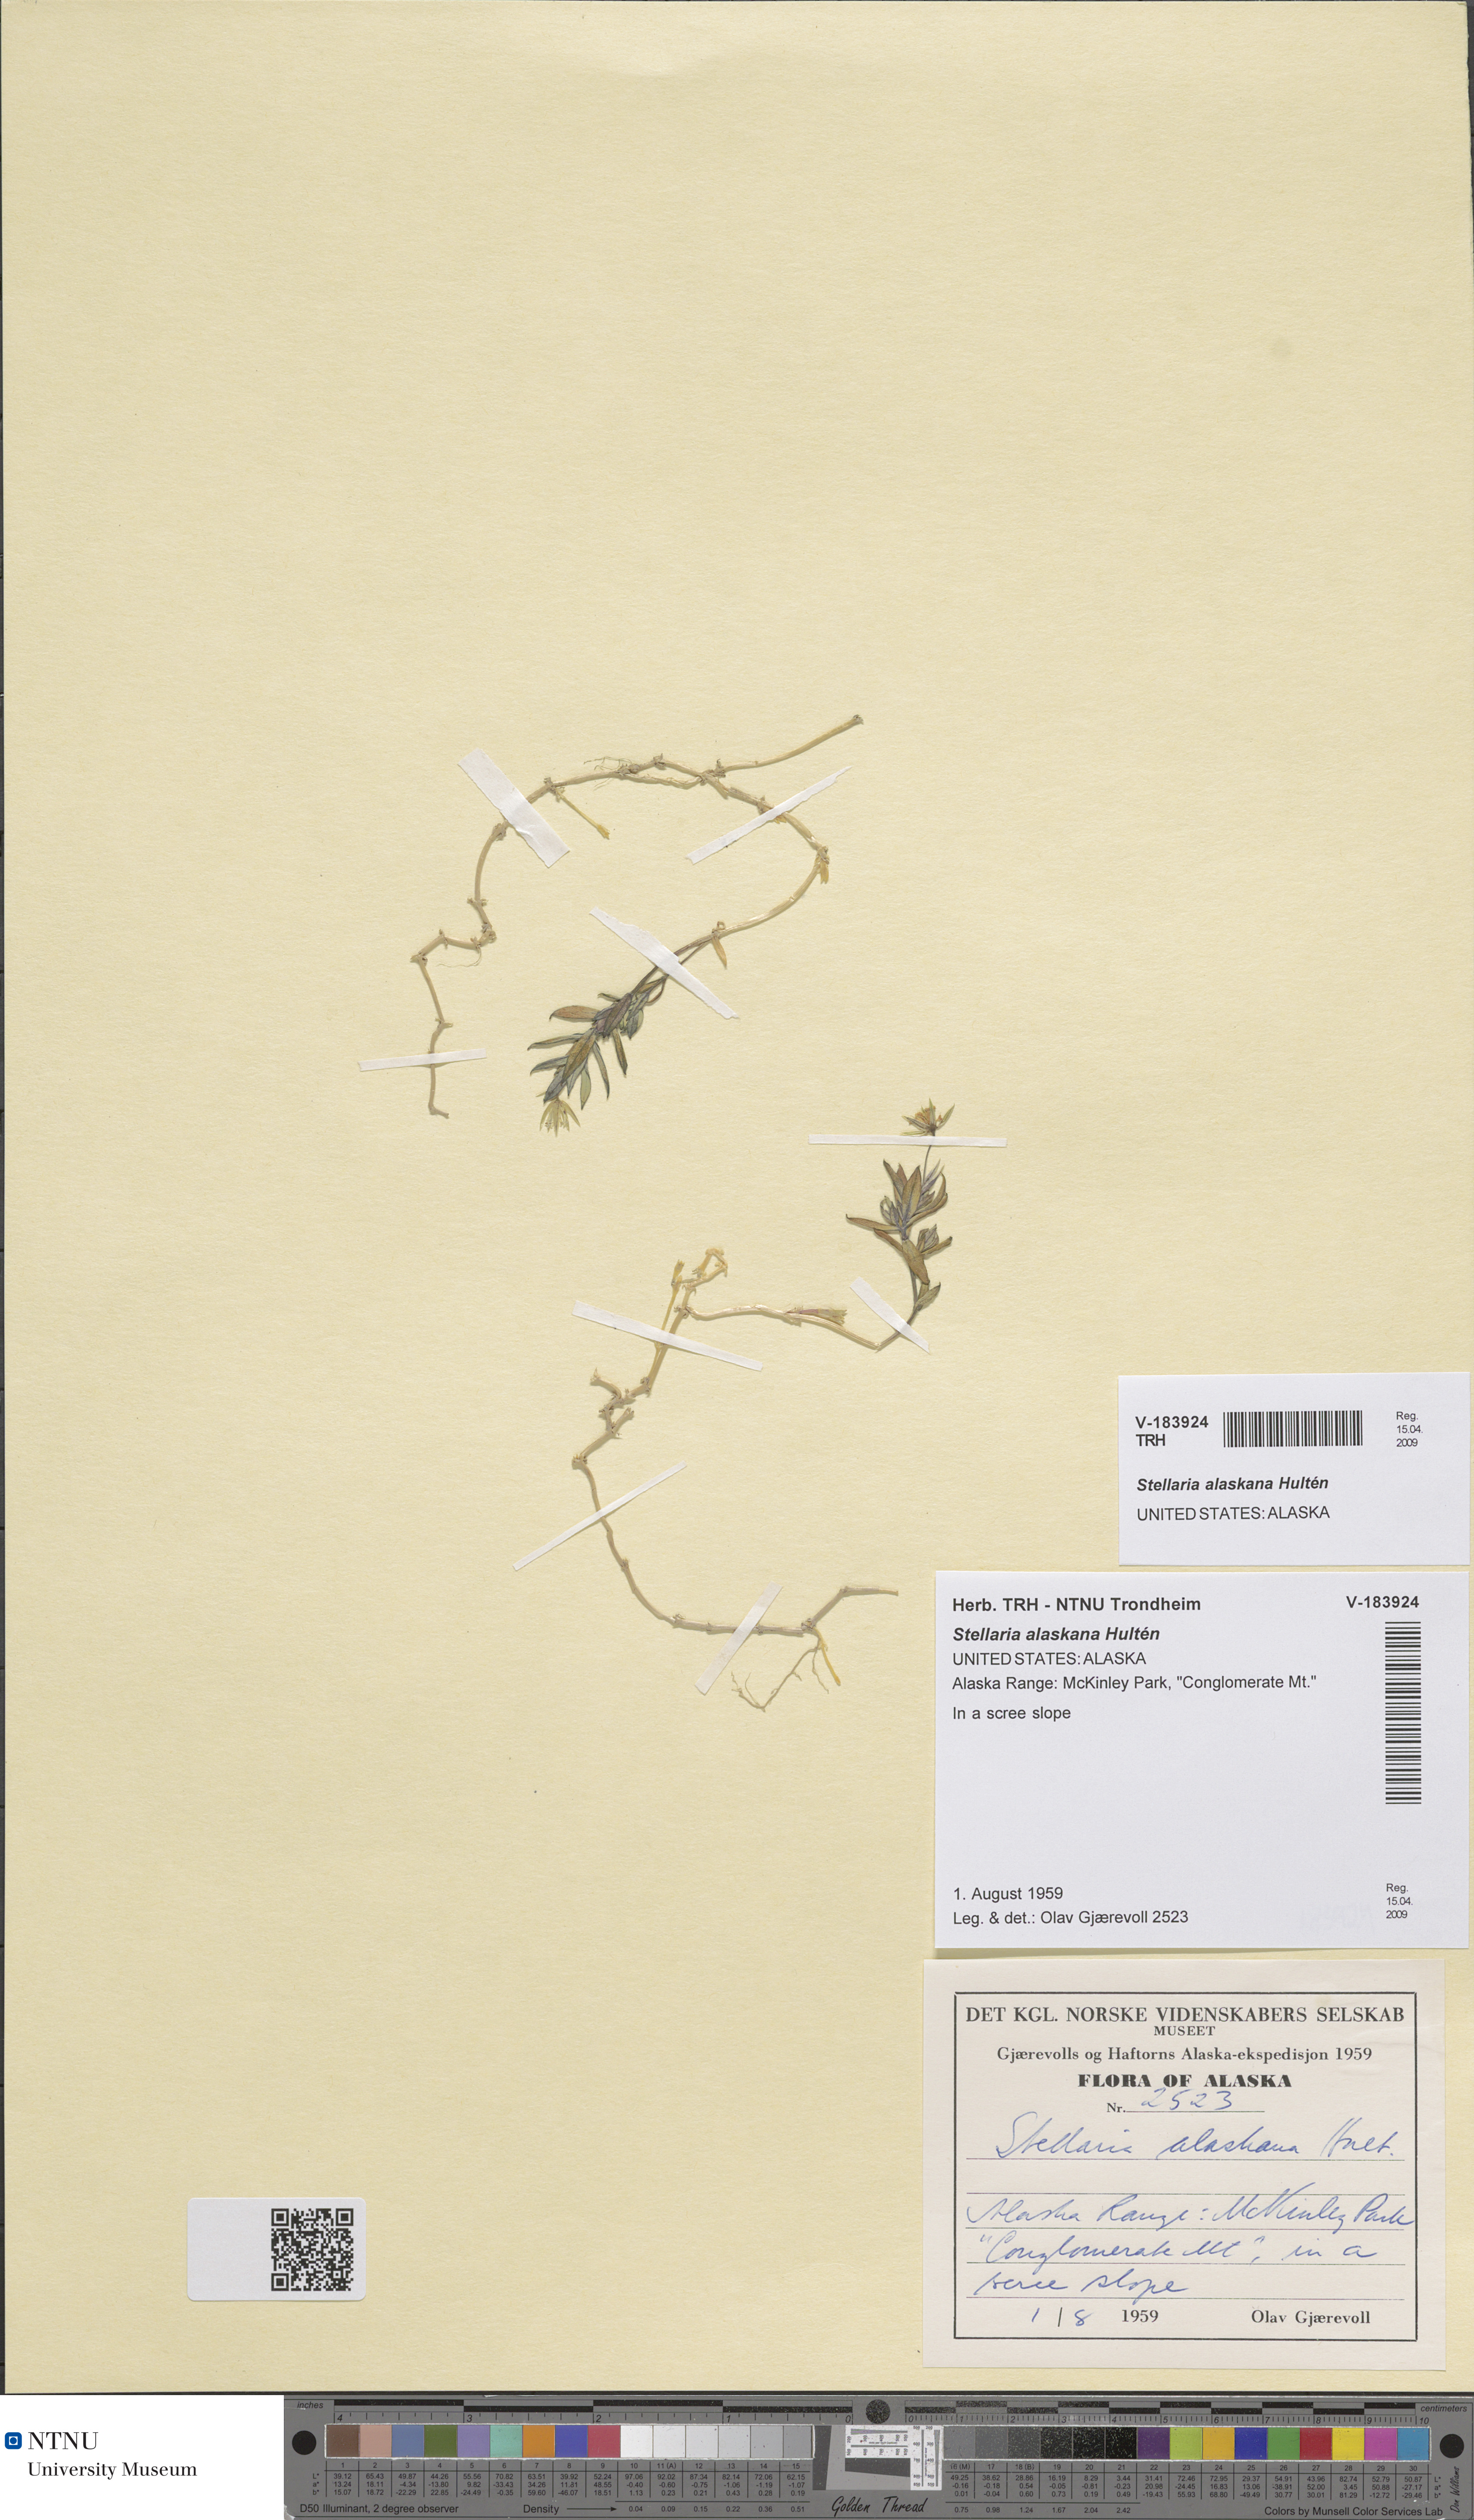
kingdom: Plantae
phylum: Tracheophyta
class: Magnoliopsida
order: Caryophyllales
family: Caryophyllaceae
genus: Stellaria
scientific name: Stellaria alaskana
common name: Alaska starwort
